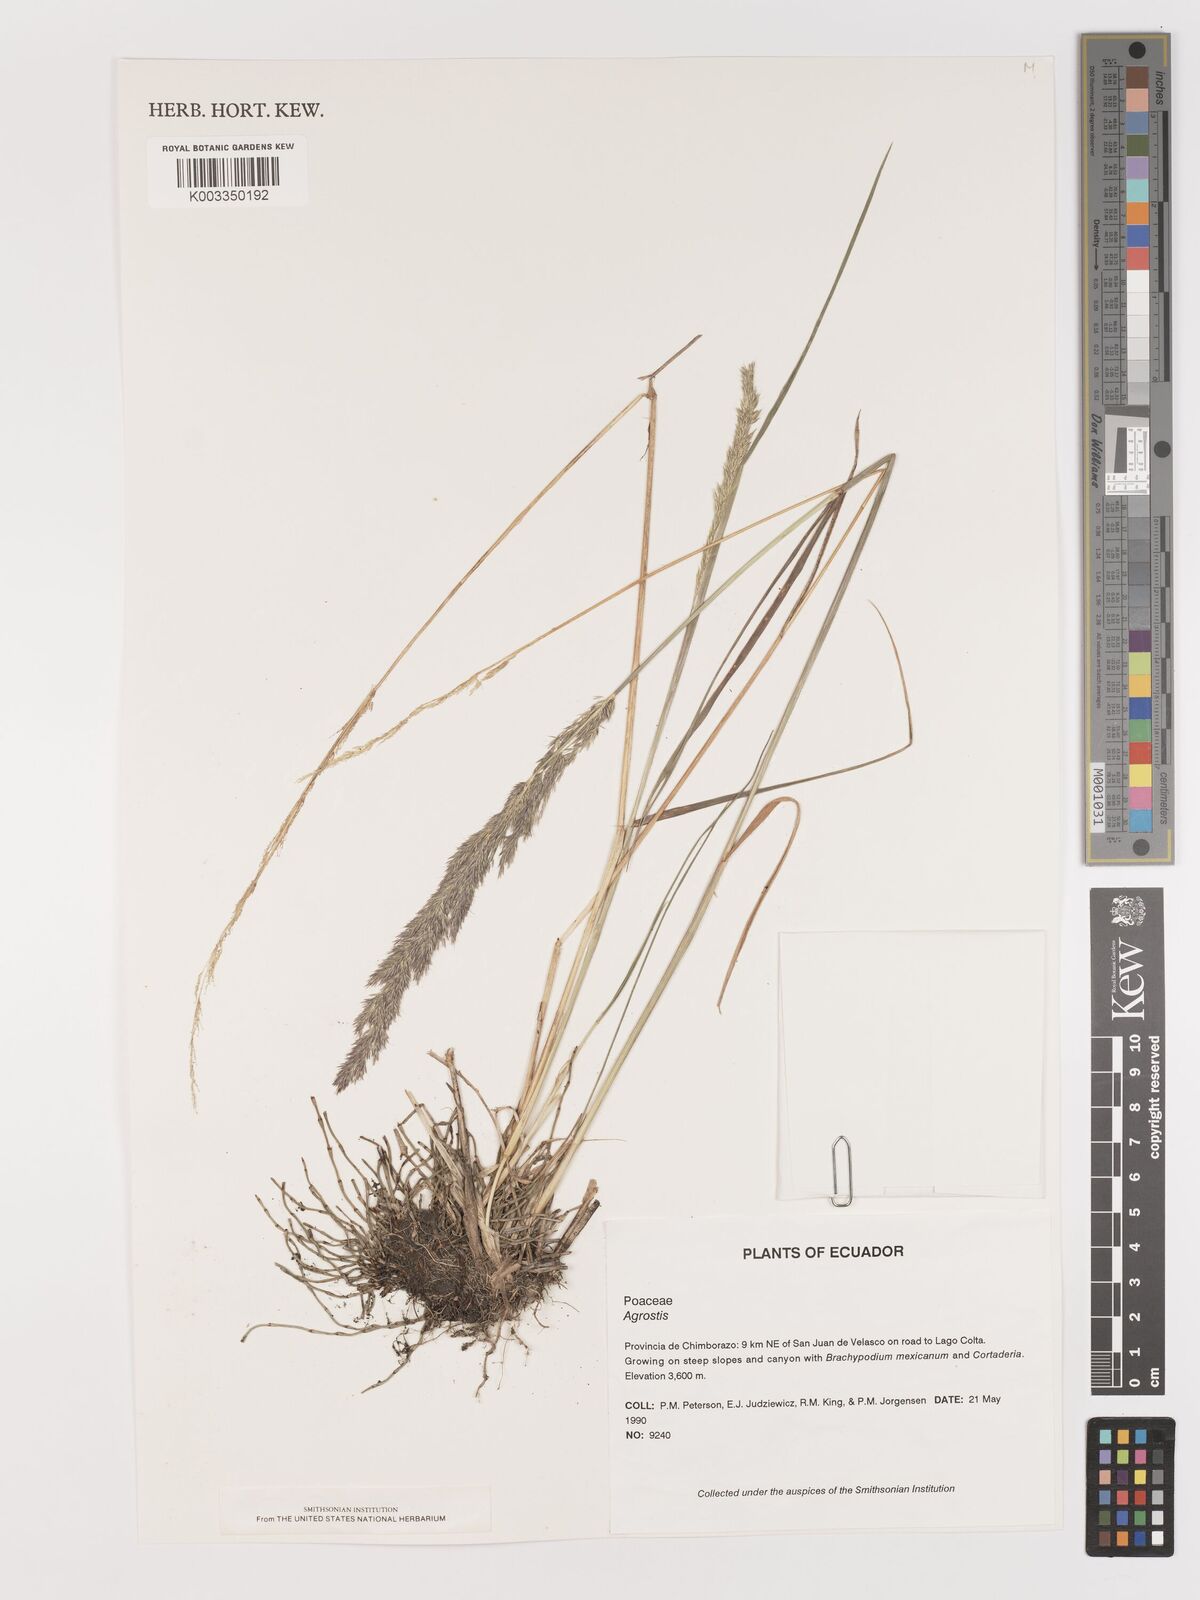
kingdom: Plantae
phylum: Tracheophyta
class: Liliopsida
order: Poales
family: Poaceae
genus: Agrostis
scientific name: Agrostis
